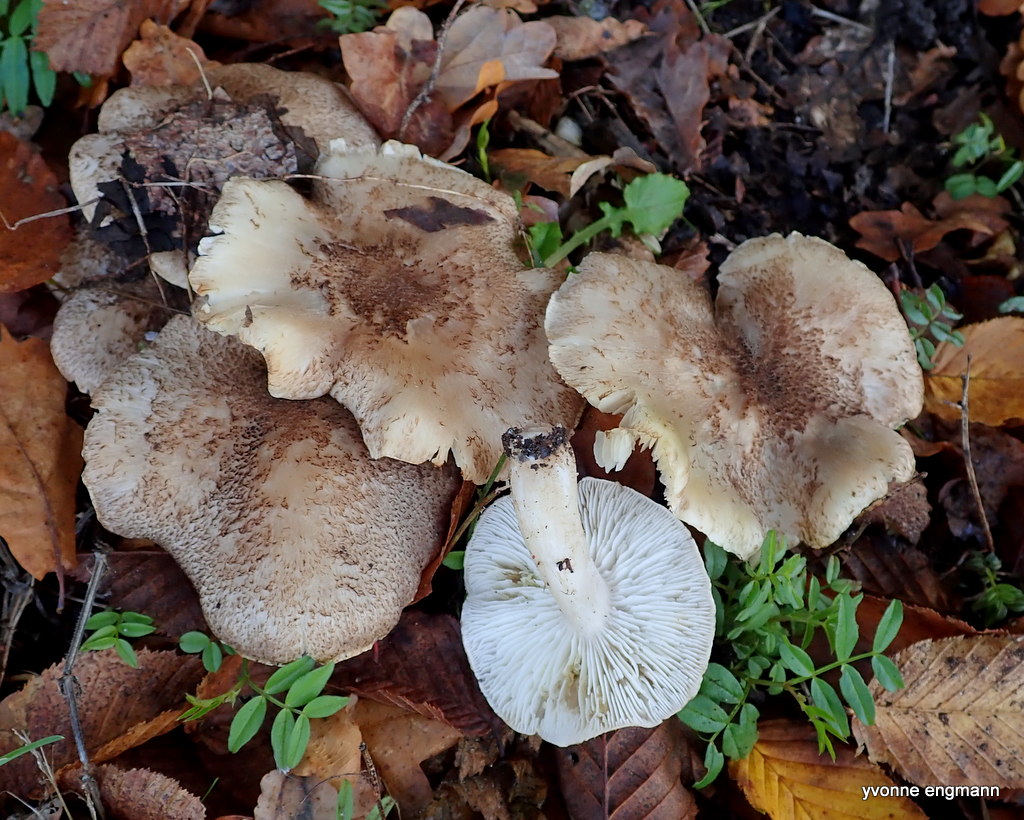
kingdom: Fungi
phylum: Basidiomycota
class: Agaricomycetes
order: Agaricales
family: Tricholomataceae
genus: Tricholoma
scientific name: Tricholoma scalpturatum
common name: gulplettet ridderhat
